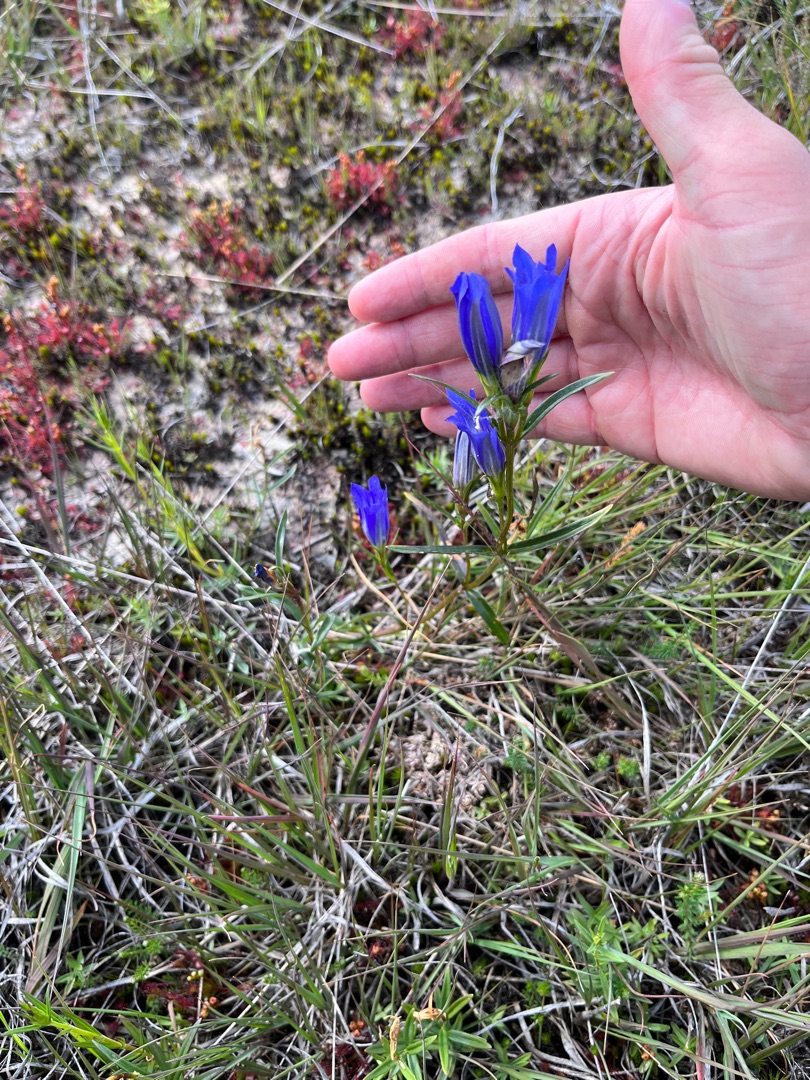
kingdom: Plantae
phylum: Tracheophyta
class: Magnoliopsida
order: Gentianales
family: Gentianaceae
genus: Gentiana
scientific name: Gentiana pneumonanthe
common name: Klokke-ensian
